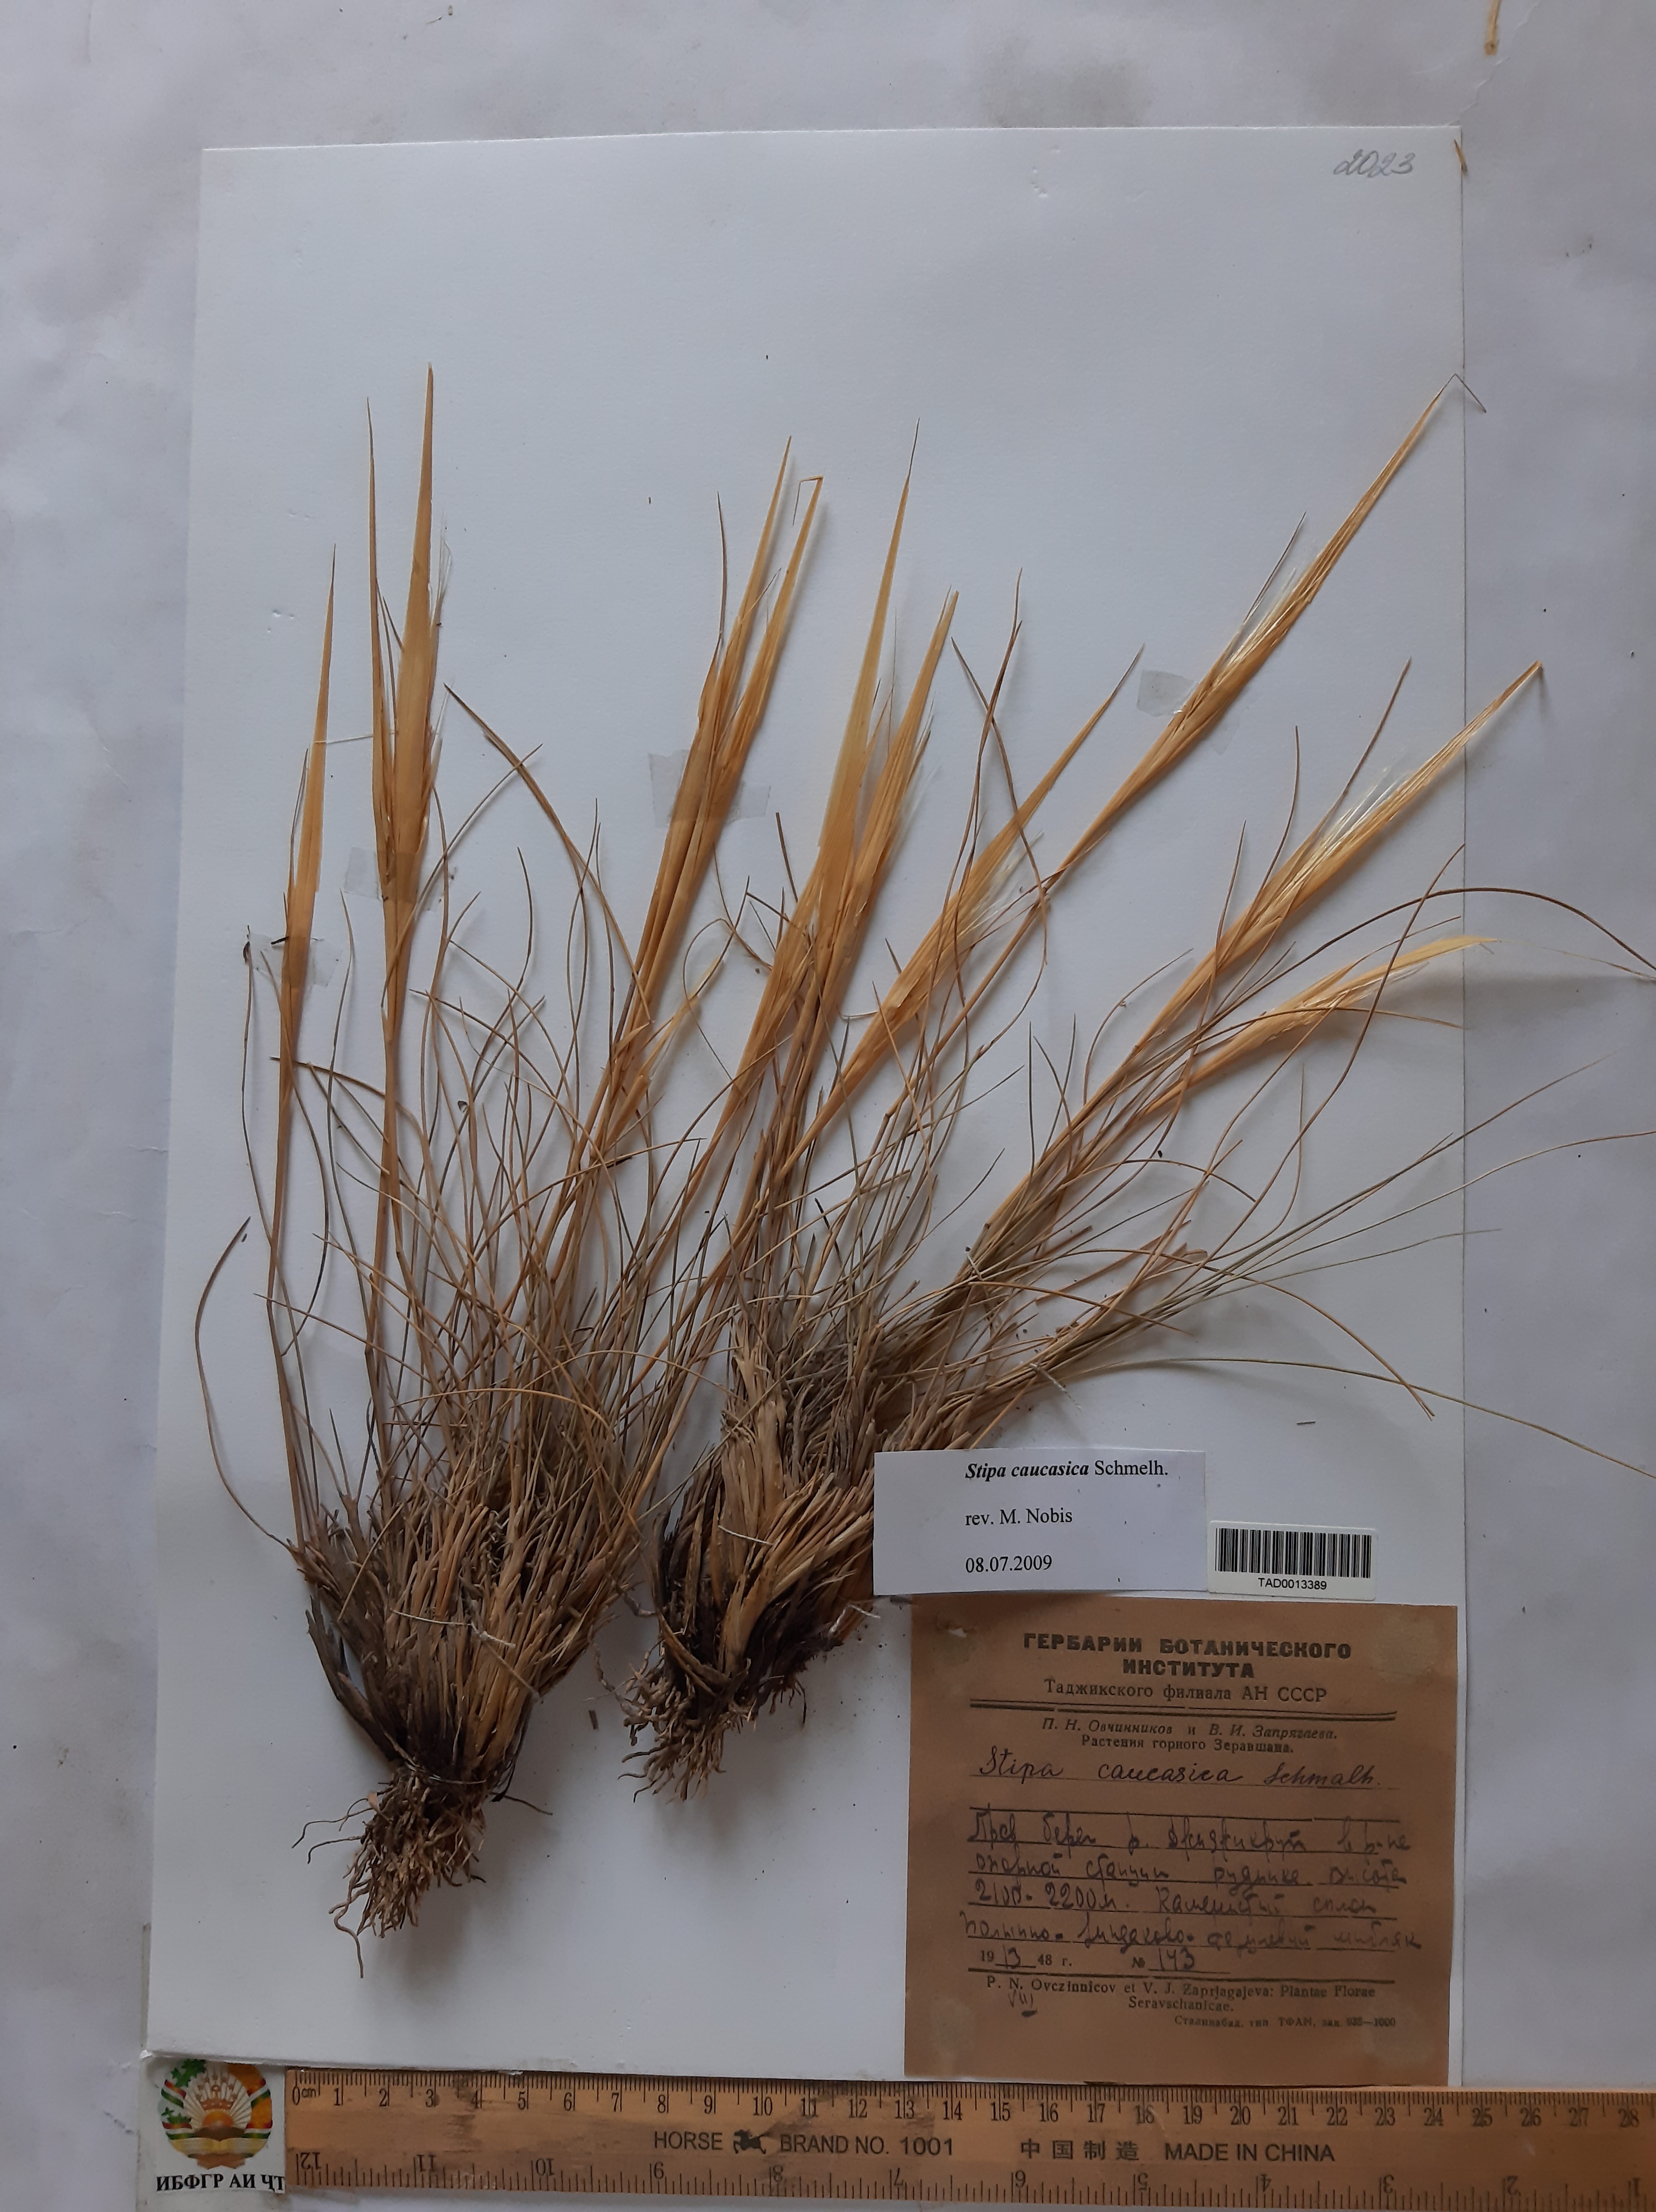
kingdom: Plantae
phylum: Tracheophyta
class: Liliopsida
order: Poales
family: Poaceae
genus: Stipa
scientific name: Stipa caucasica
